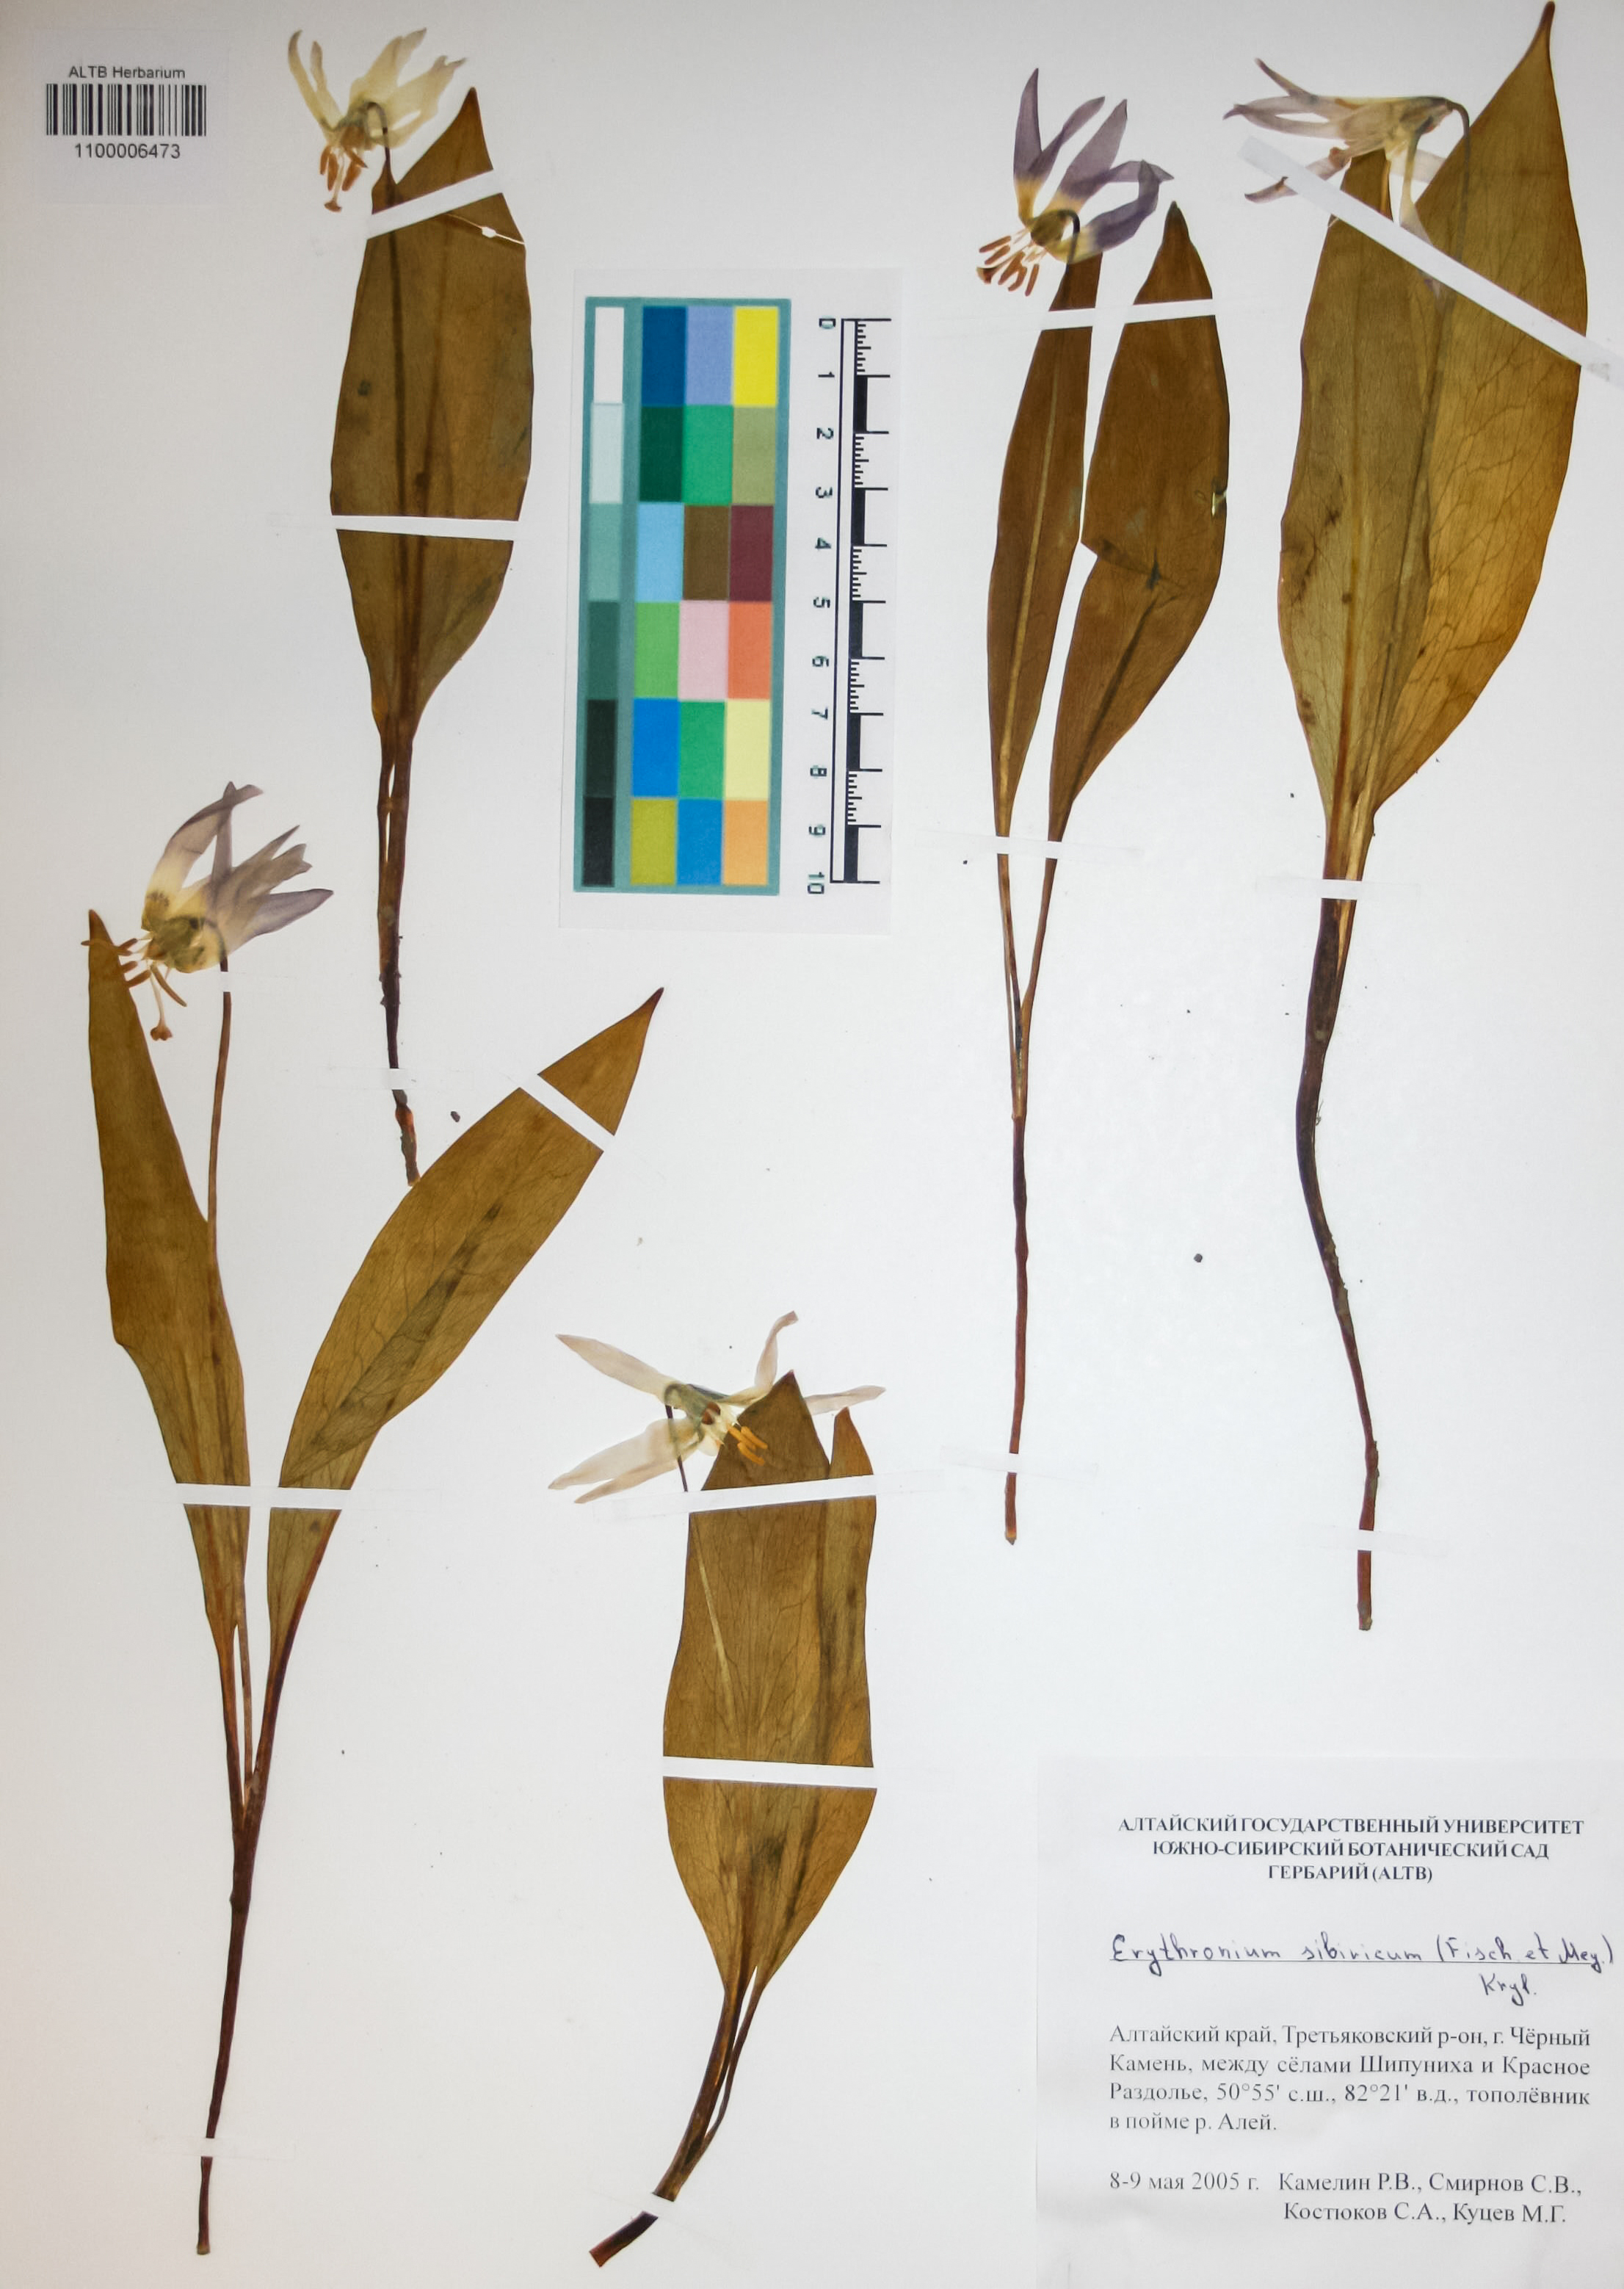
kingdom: Plantae
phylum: Tracheophyta
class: Liliopsida
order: Liliales
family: Liliaceae
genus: Erythronium
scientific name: Erythronium sibiricum
